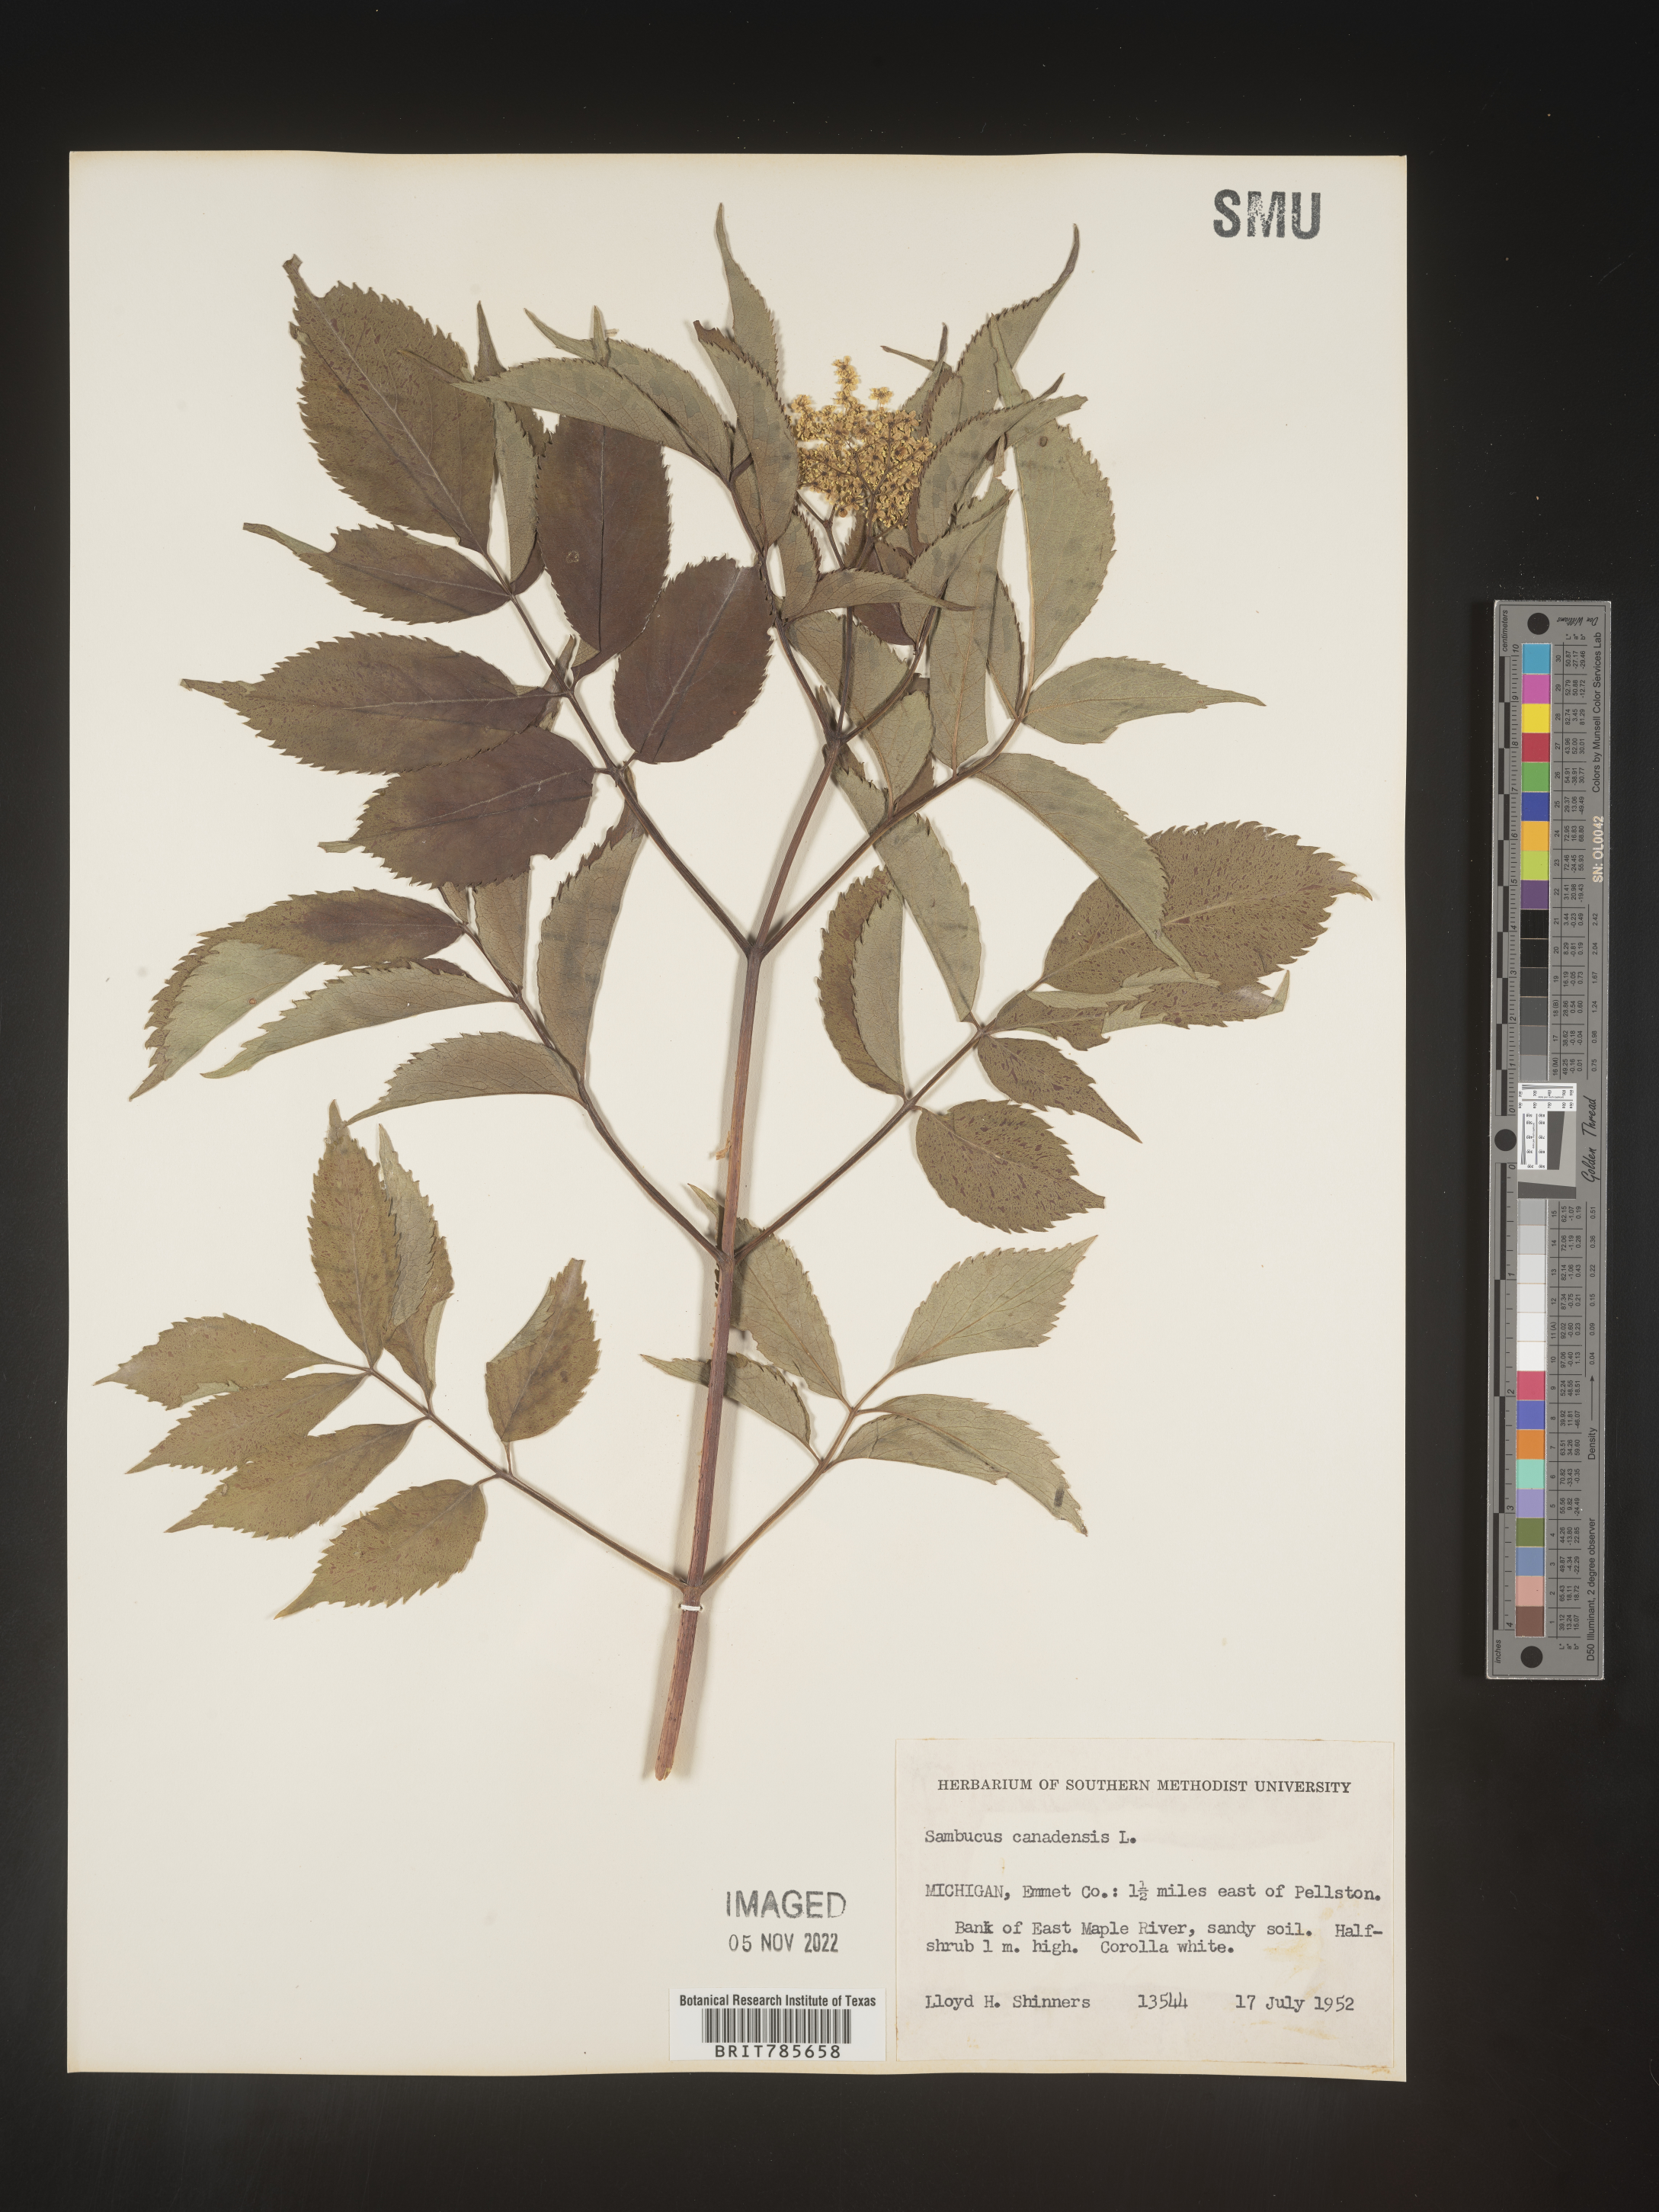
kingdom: Plantae
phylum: Tracheophyta
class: Magnoliopsida
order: Dipsacales
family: Viburnaceae
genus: Sambucus
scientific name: Sambucus canadensis
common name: American elder
